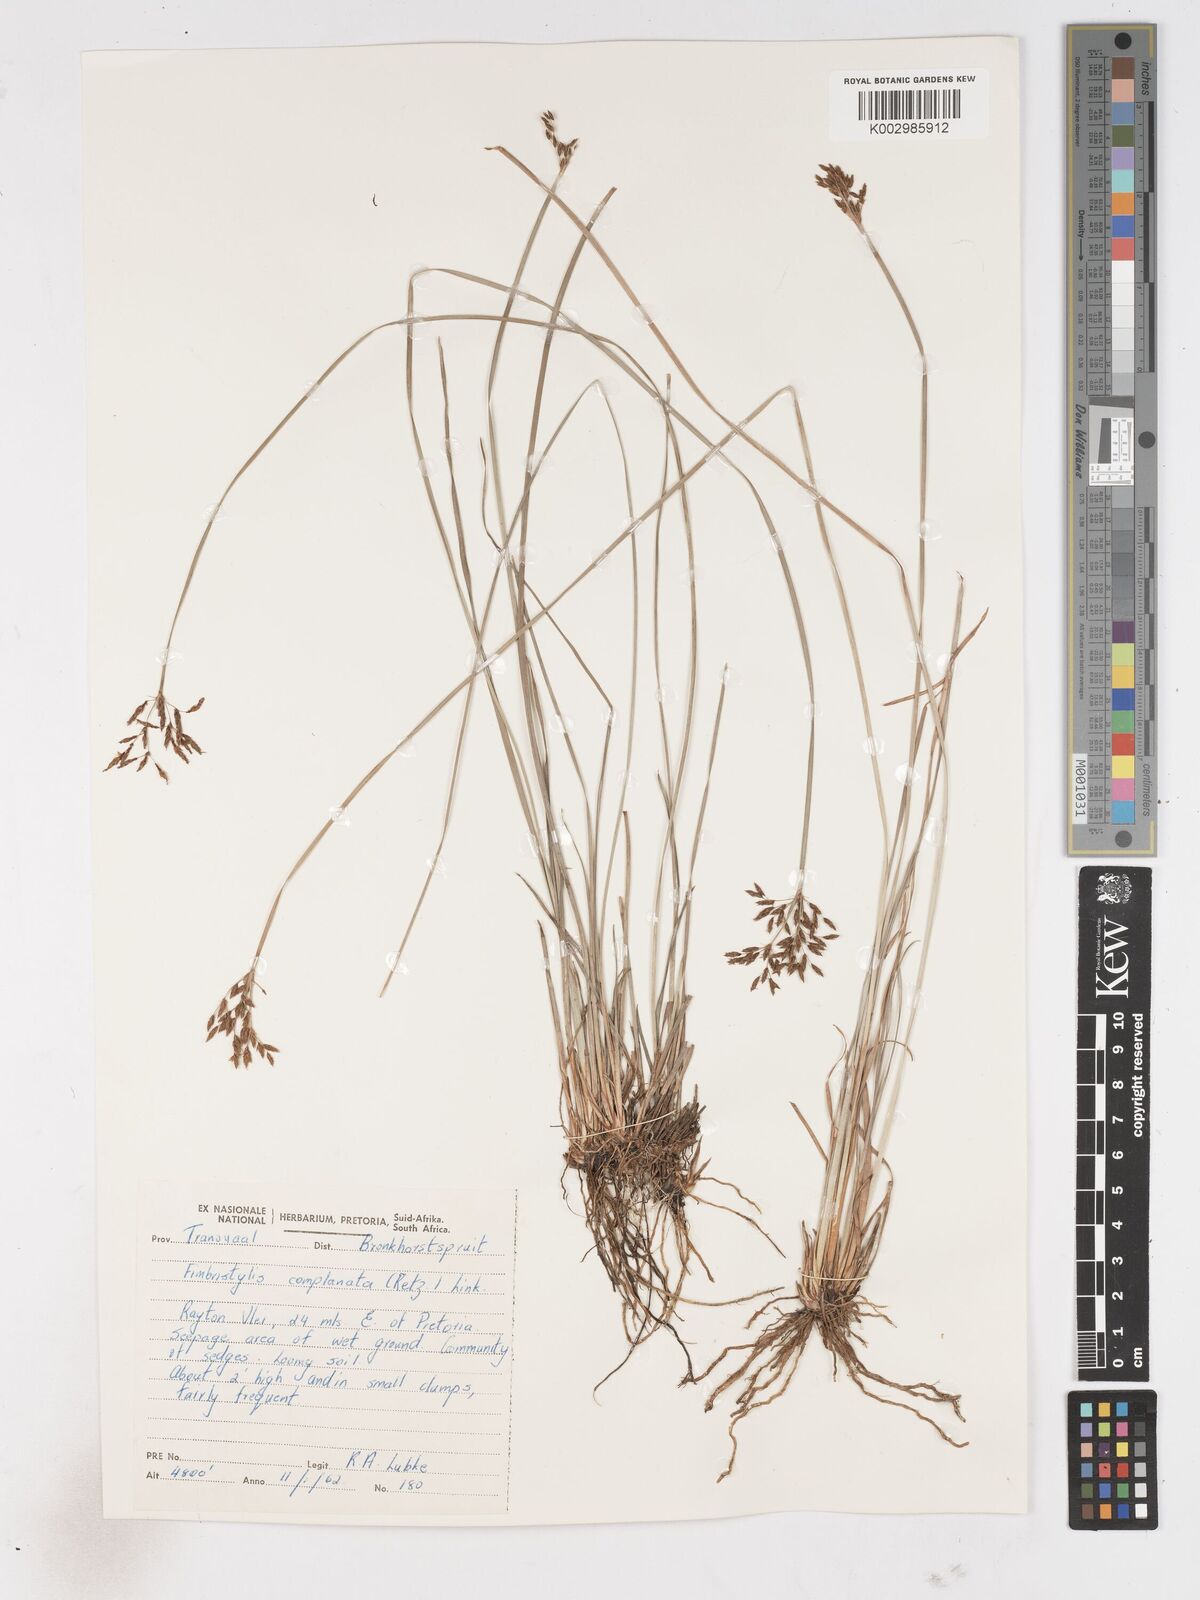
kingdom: Plantae
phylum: Tracheophyta
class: Liliopsida
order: Poales
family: Cyperaceae
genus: Fimbristylis
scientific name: Fimbristylis complanata
